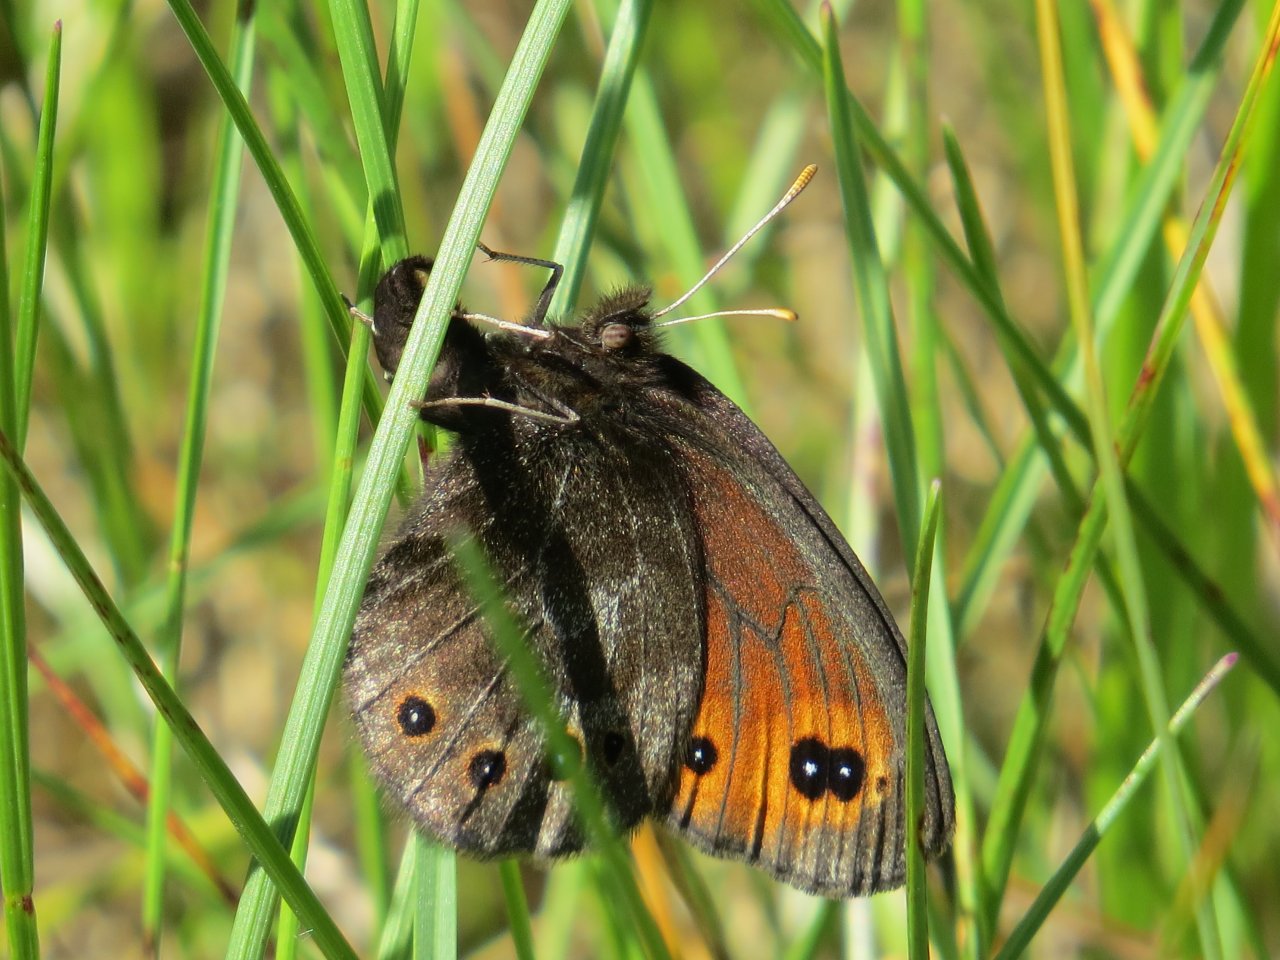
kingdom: Animalia
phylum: Arthropoda
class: Insecta
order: Lepidoptera
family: Nymphalidae
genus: Erebia
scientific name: Erebia epipsodea
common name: Common Alpine
